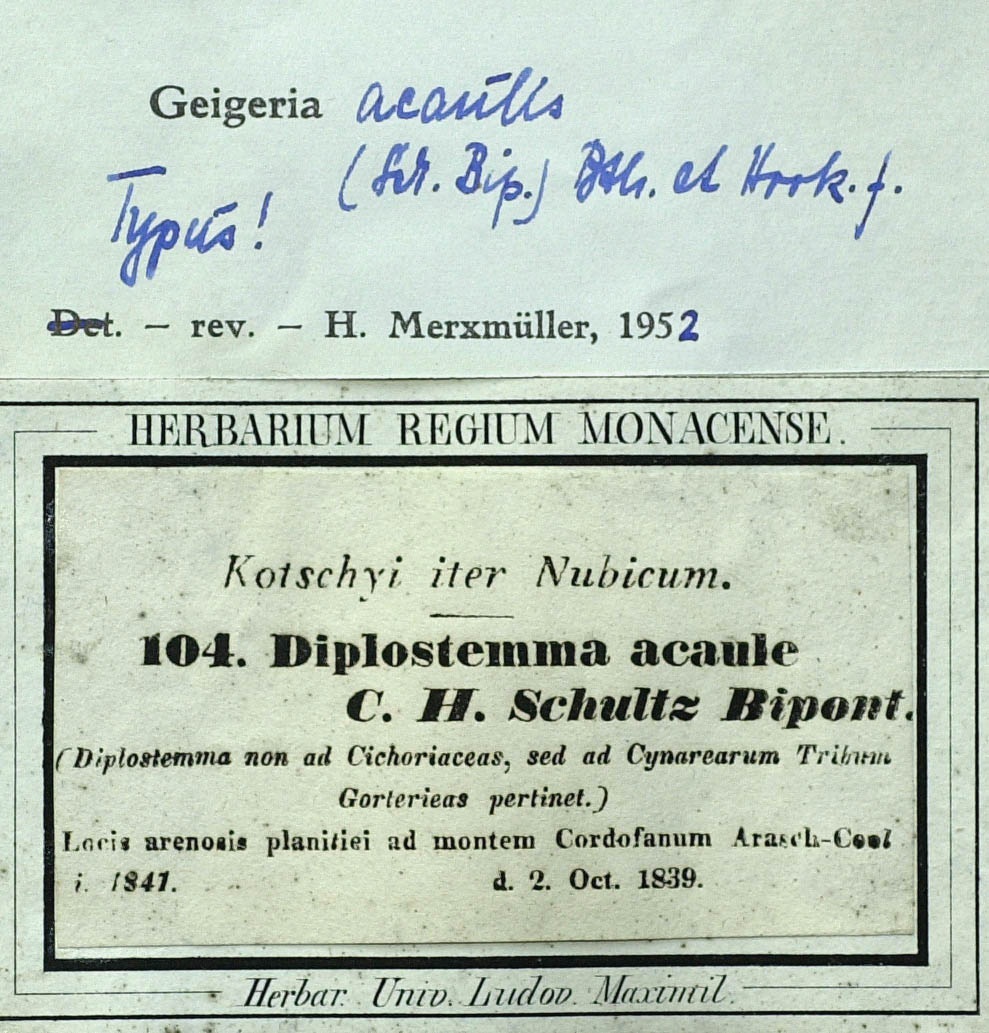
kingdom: Plantae
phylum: Tracheophyta
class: Magnoliopsida
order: Asterales
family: Asteraceae
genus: Geigeria
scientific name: Geigeria acaulis
